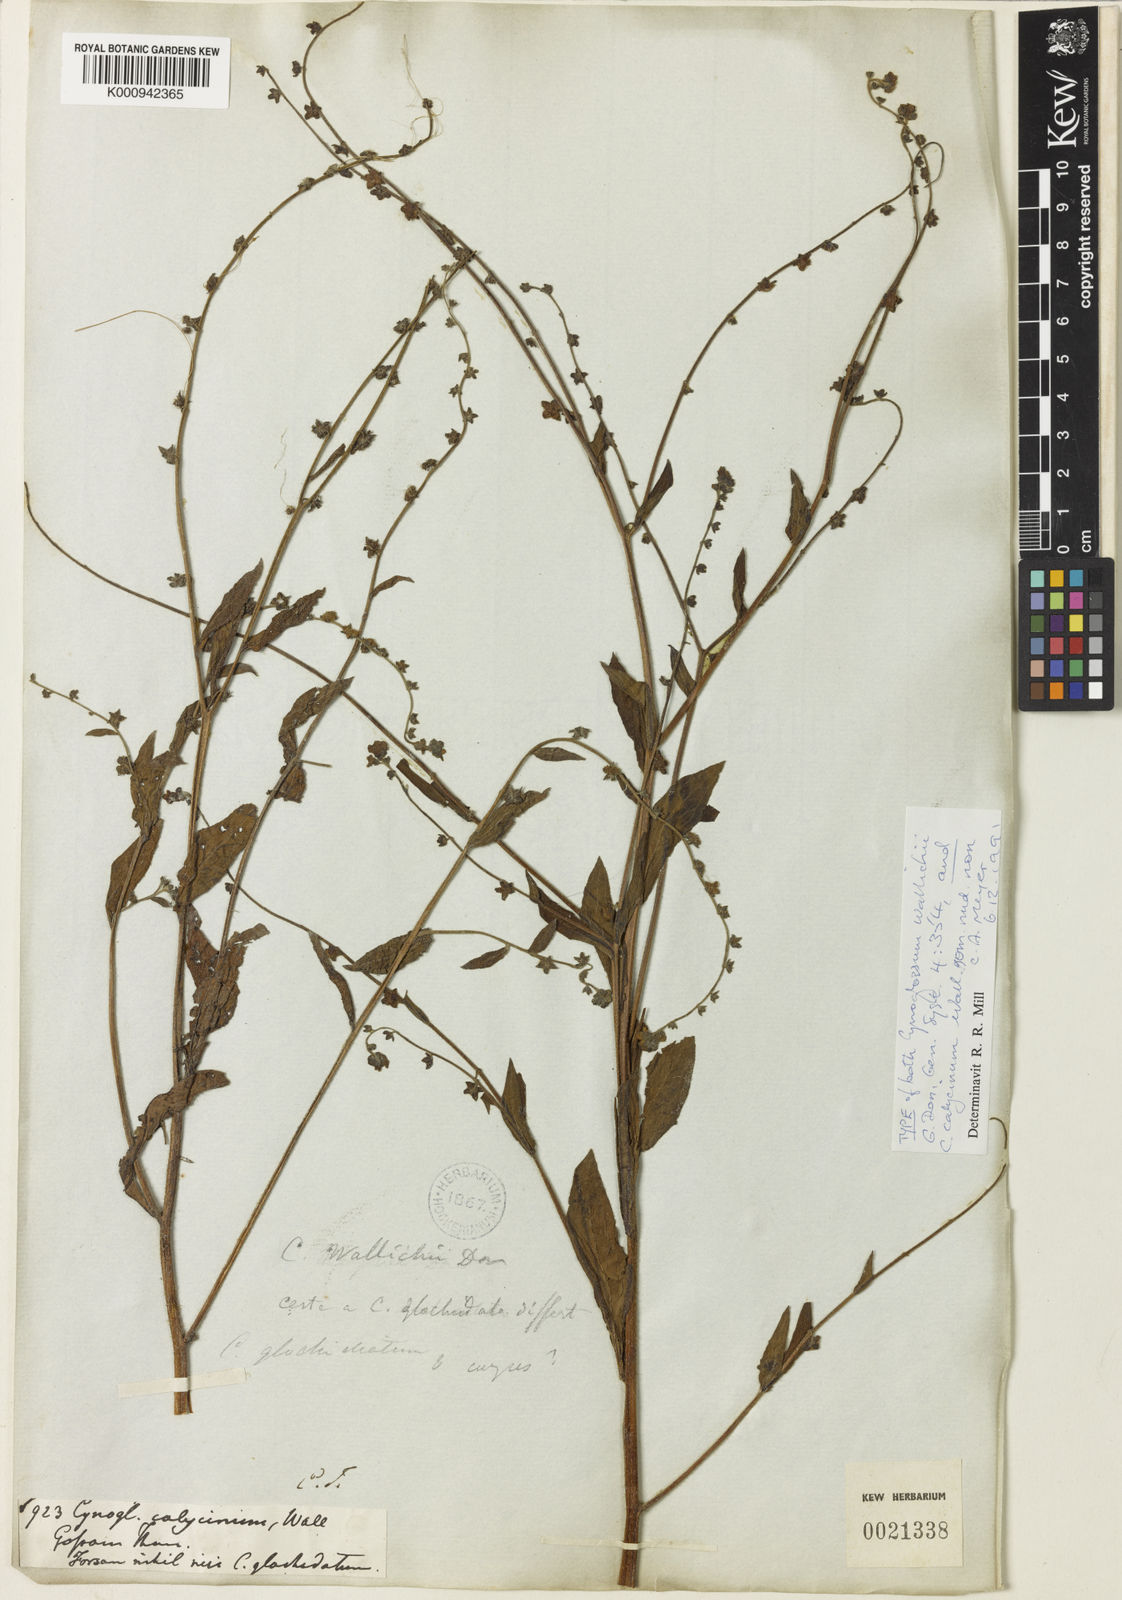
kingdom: Plantae
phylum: Tracheophyta
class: Magnoliopsida
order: Boraginales
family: Boraginaceae
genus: Paracynoglossum
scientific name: Paracynoglossum glochidiatum
